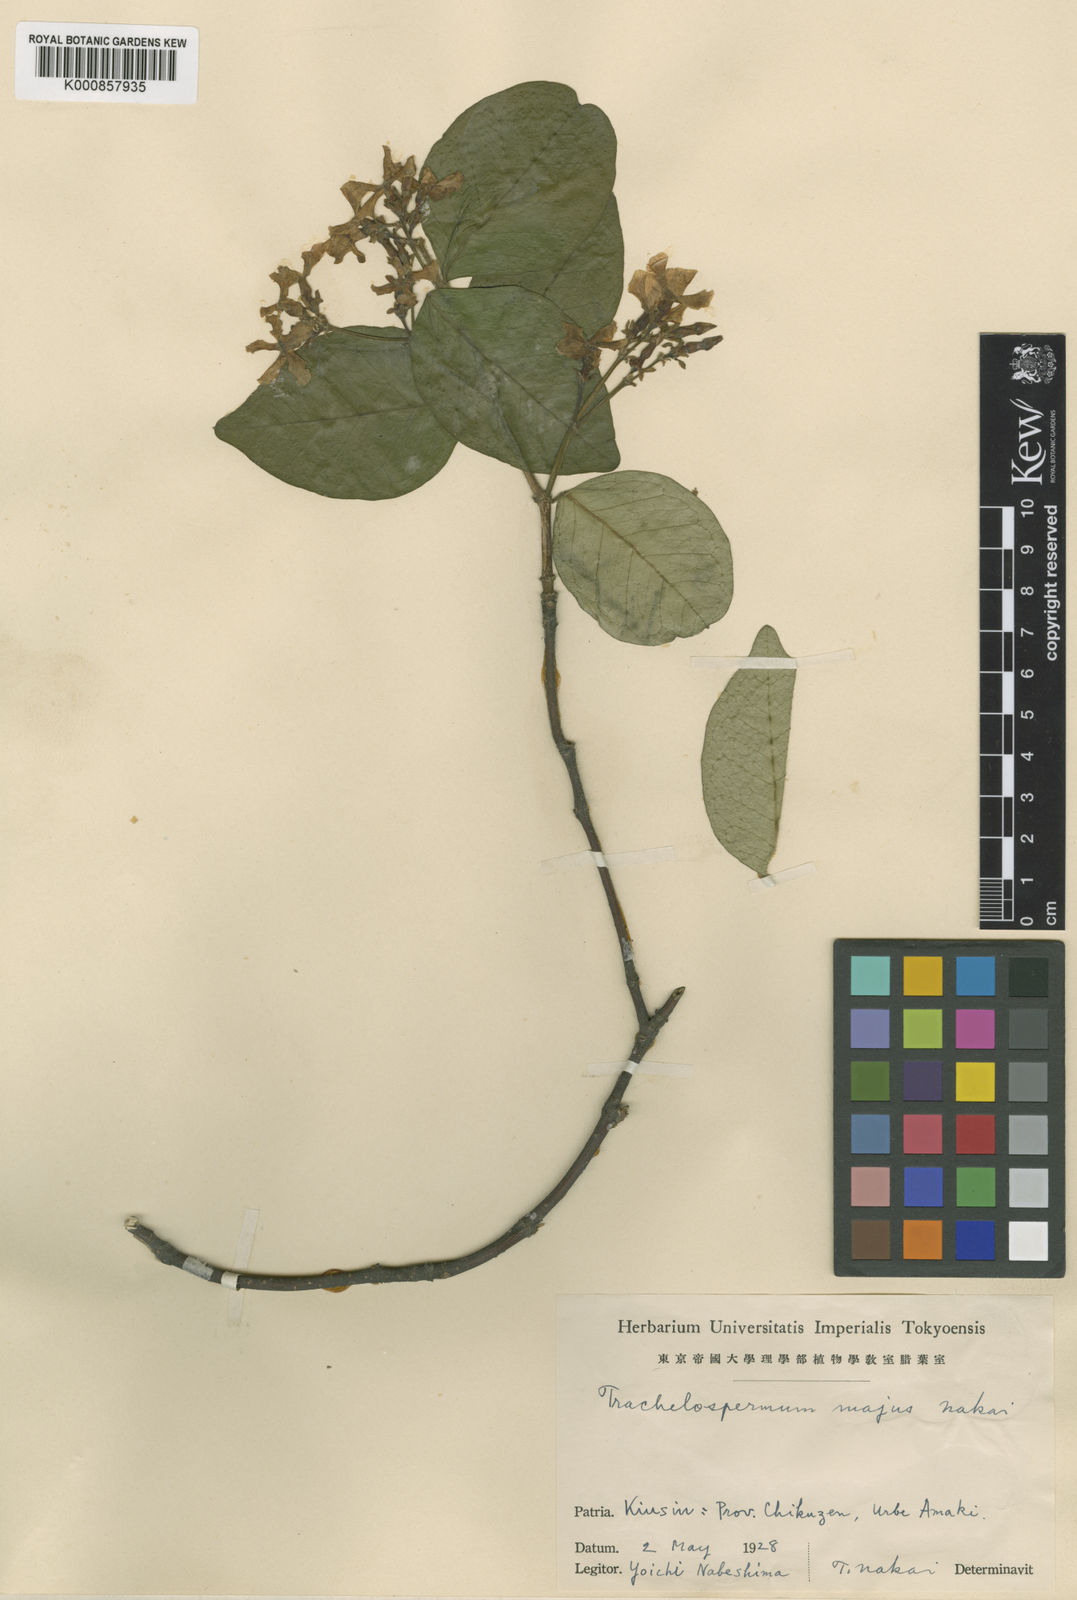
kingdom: Plantae
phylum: Tracheophyta
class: Magnoliopsida
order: Gentianales
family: Apocynaceae
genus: Trachelospermum
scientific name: Trachelospermum jasminoides
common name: Confederate jasmine
